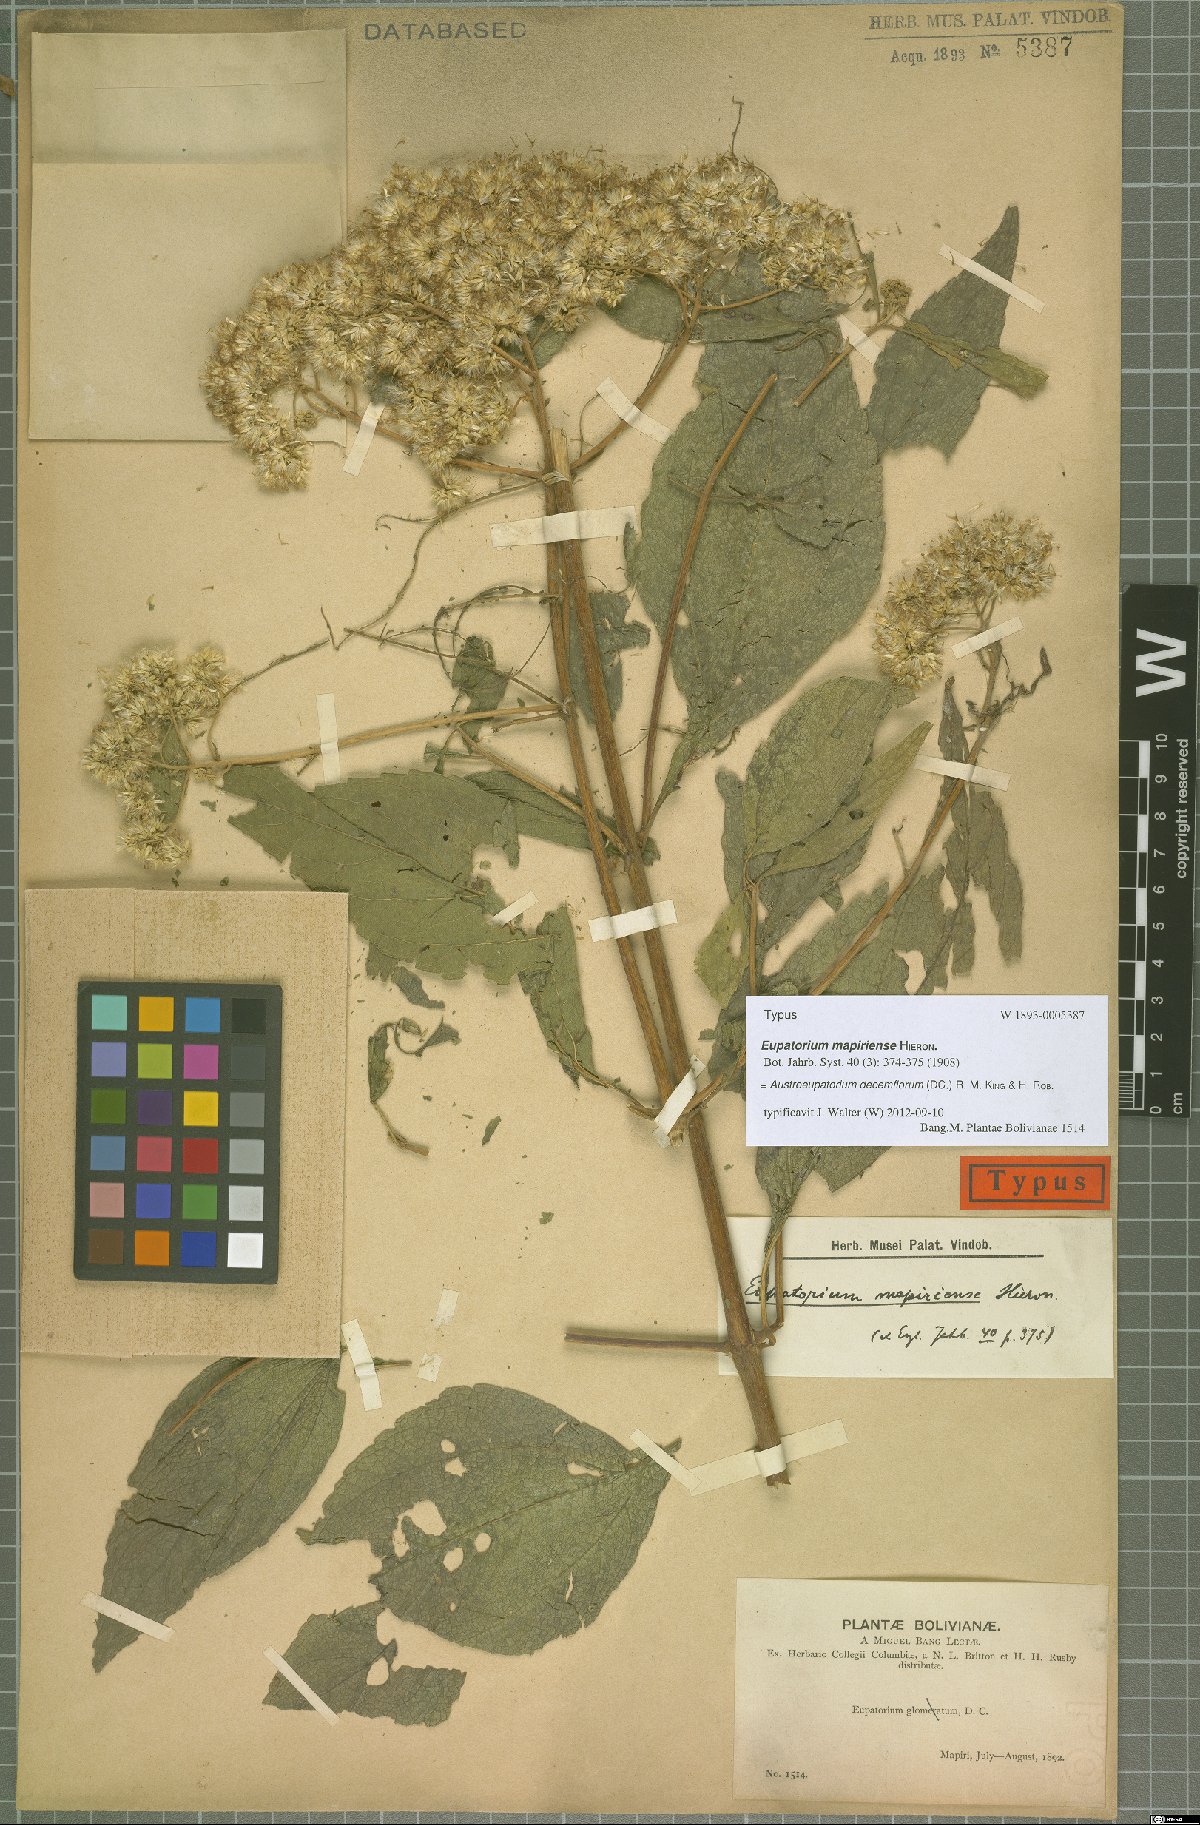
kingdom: Plantae
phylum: Tracheophyta
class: Magnoliopsida
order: Asterales
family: Asteraceae
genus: Austroeupatorium
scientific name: Austroeupatorium decemflorum
